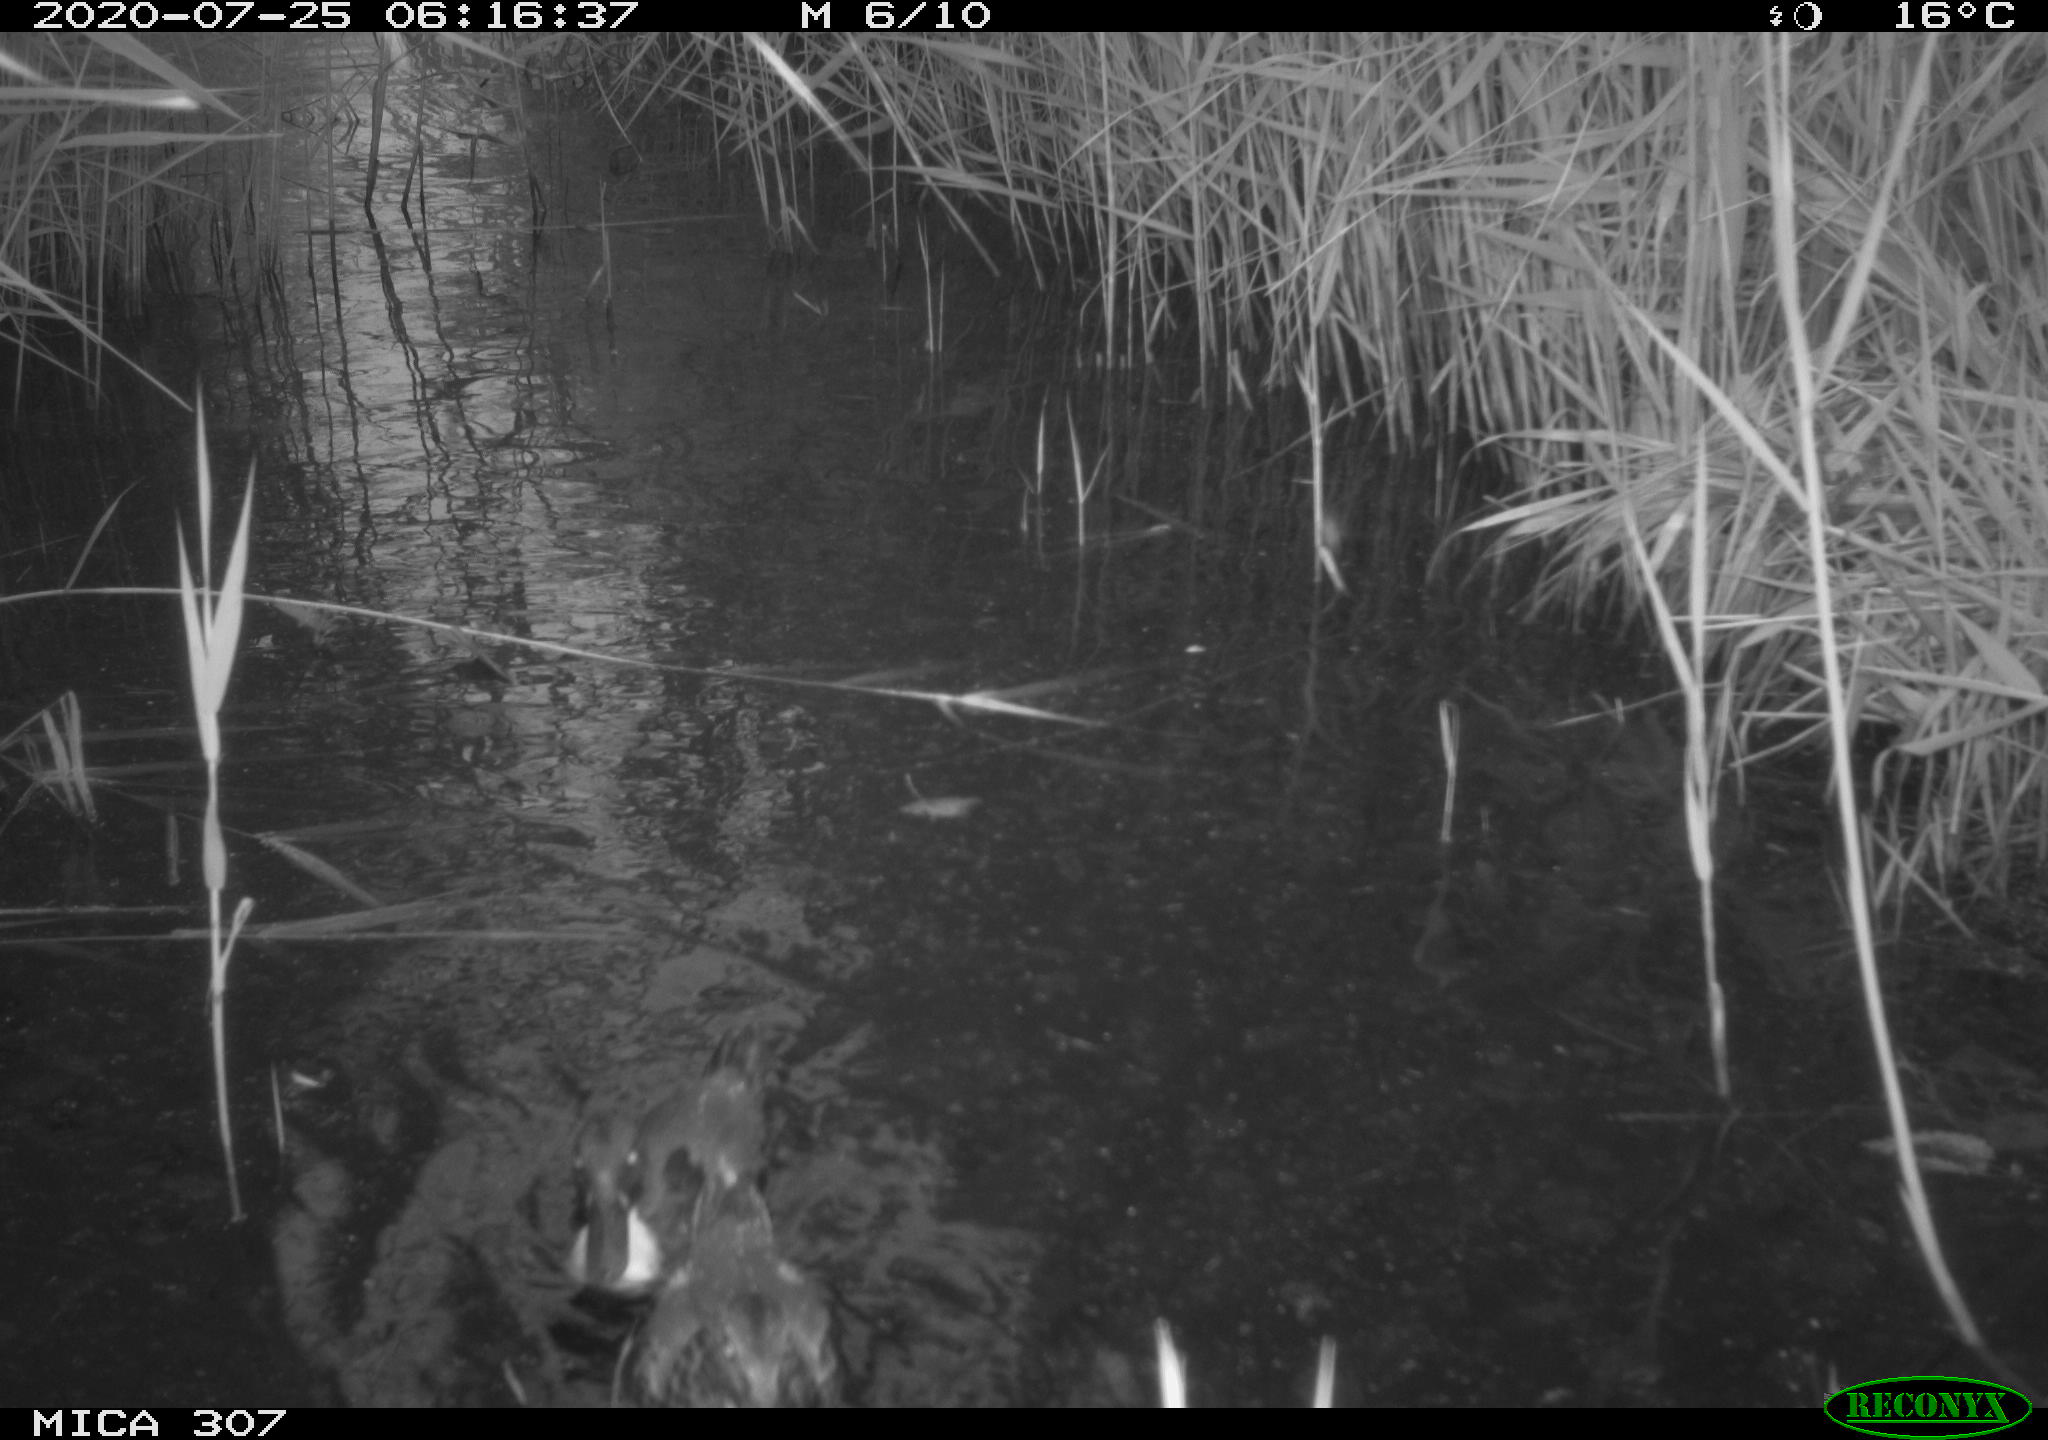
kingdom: Animalia
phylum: Chordata
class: Aves
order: Anseriformes
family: Anatidae
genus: Anas
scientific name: Anas platyrhynchos
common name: Mallard
